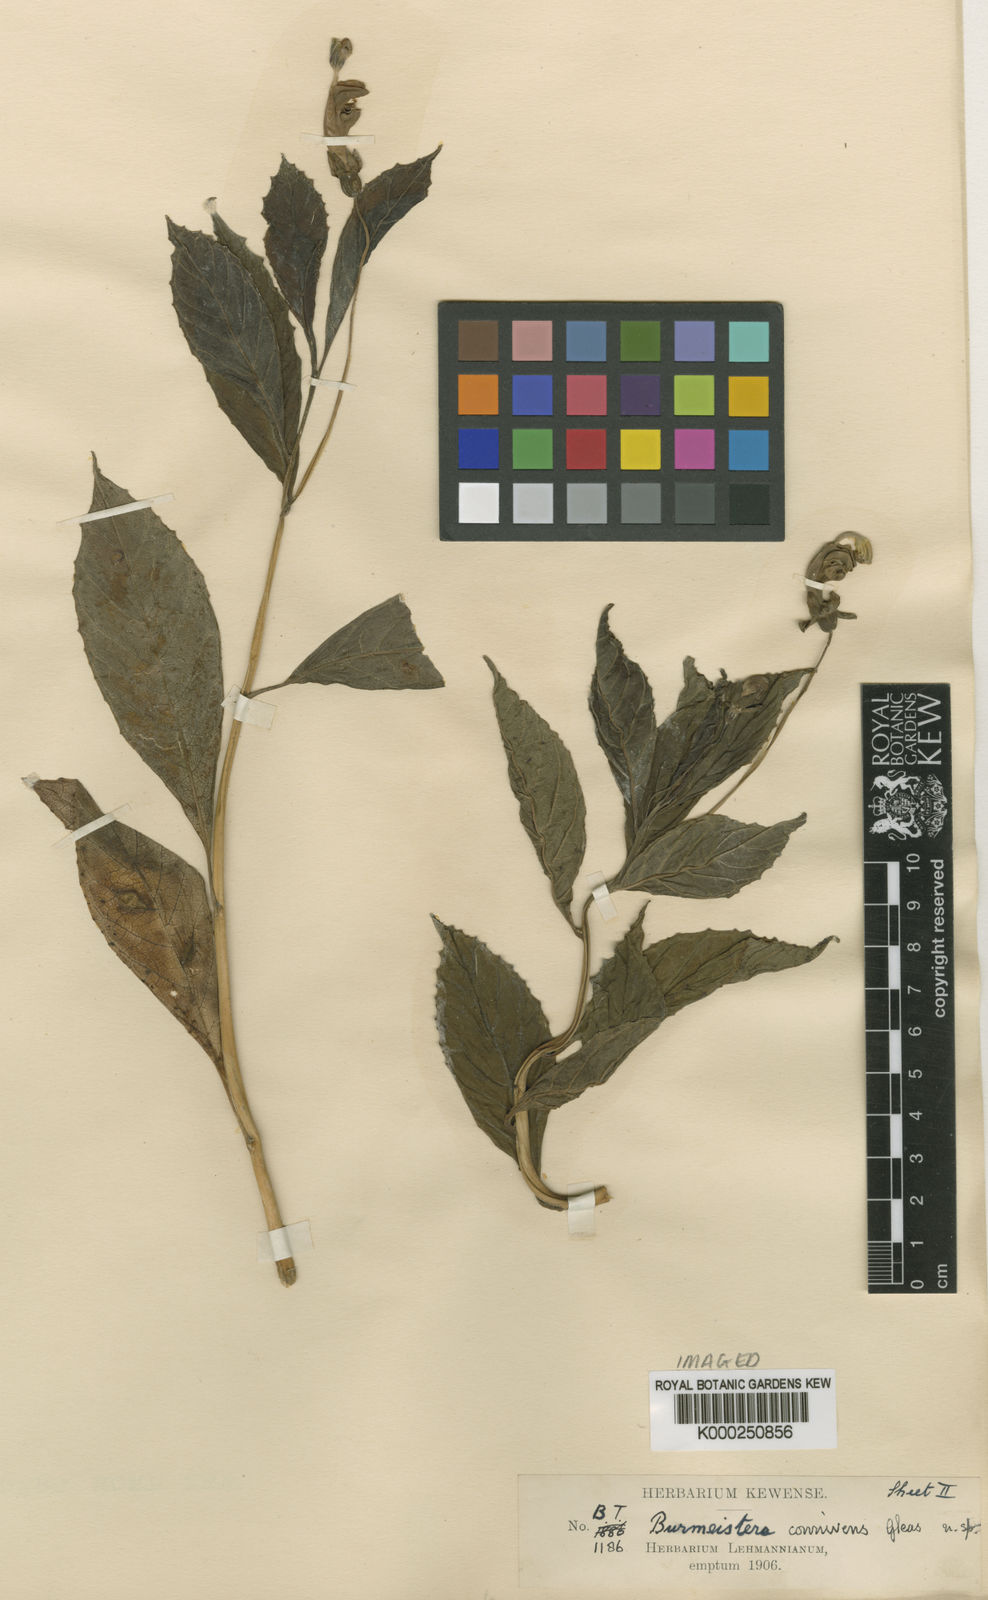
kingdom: Plantae
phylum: Tracheophyta
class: Magnoliopsida
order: Asterales
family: Campanulaceae
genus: Burmeistera
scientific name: Burmeistera connivens
